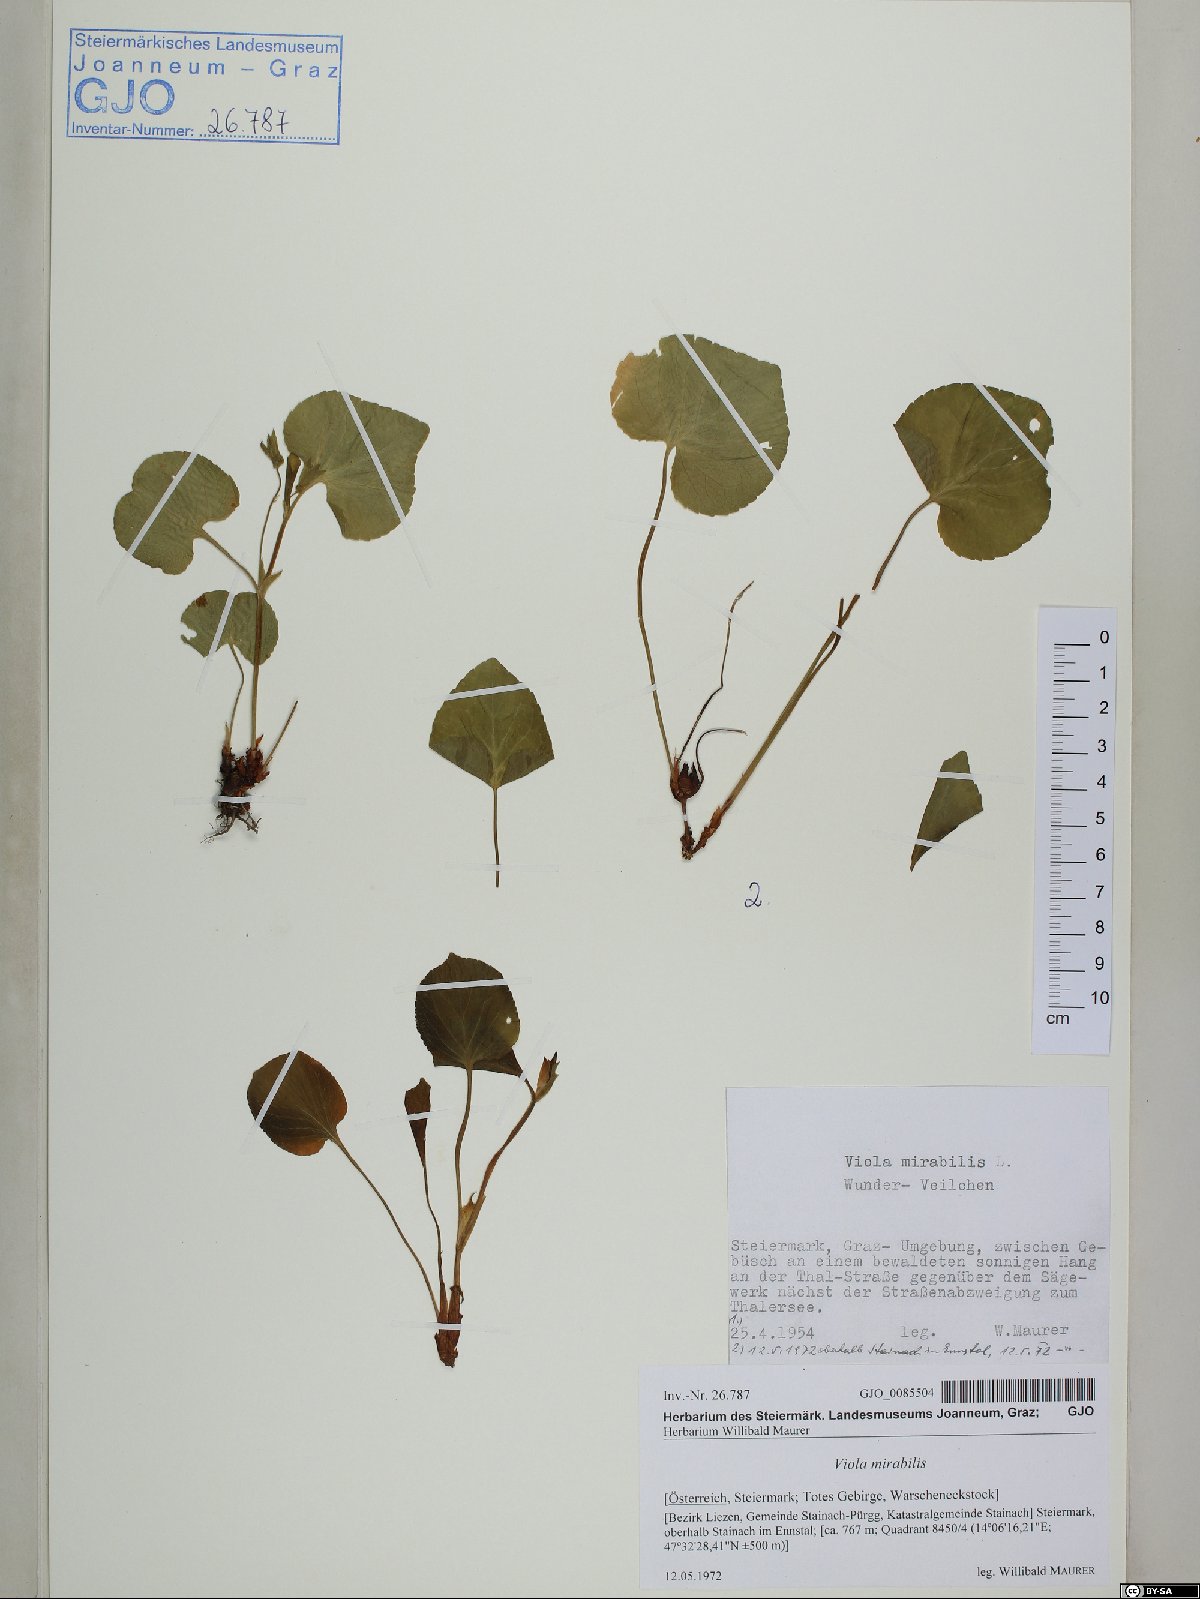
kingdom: Plantae
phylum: Tracheophyta
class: Magnoliopsida
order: Malpighiales
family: Violaceae
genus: Viola
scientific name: Viola mirabilis
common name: Wonder violet
